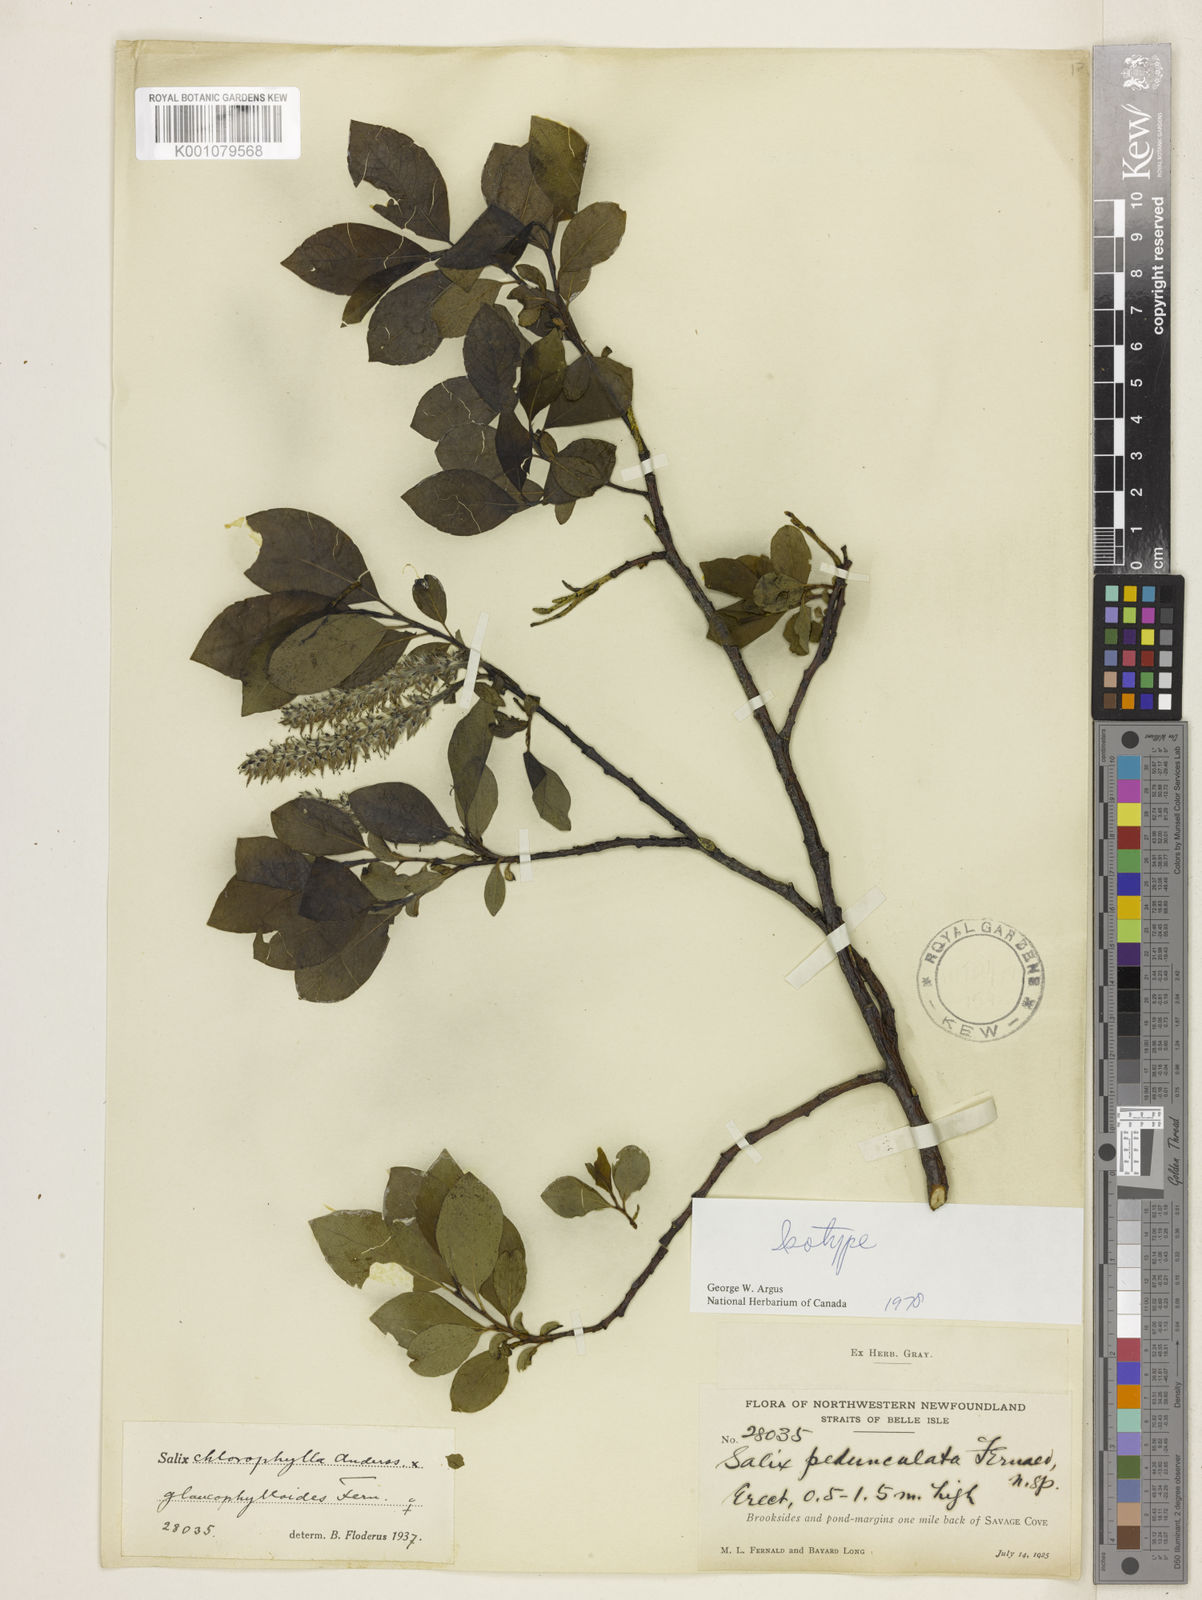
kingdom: Plantae
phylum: Tracheophyta
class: Magnoliopsida
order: Malpighiales
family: Salicaceae
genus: Salix
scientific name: Salix pedunculata
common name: Blackbract willow
